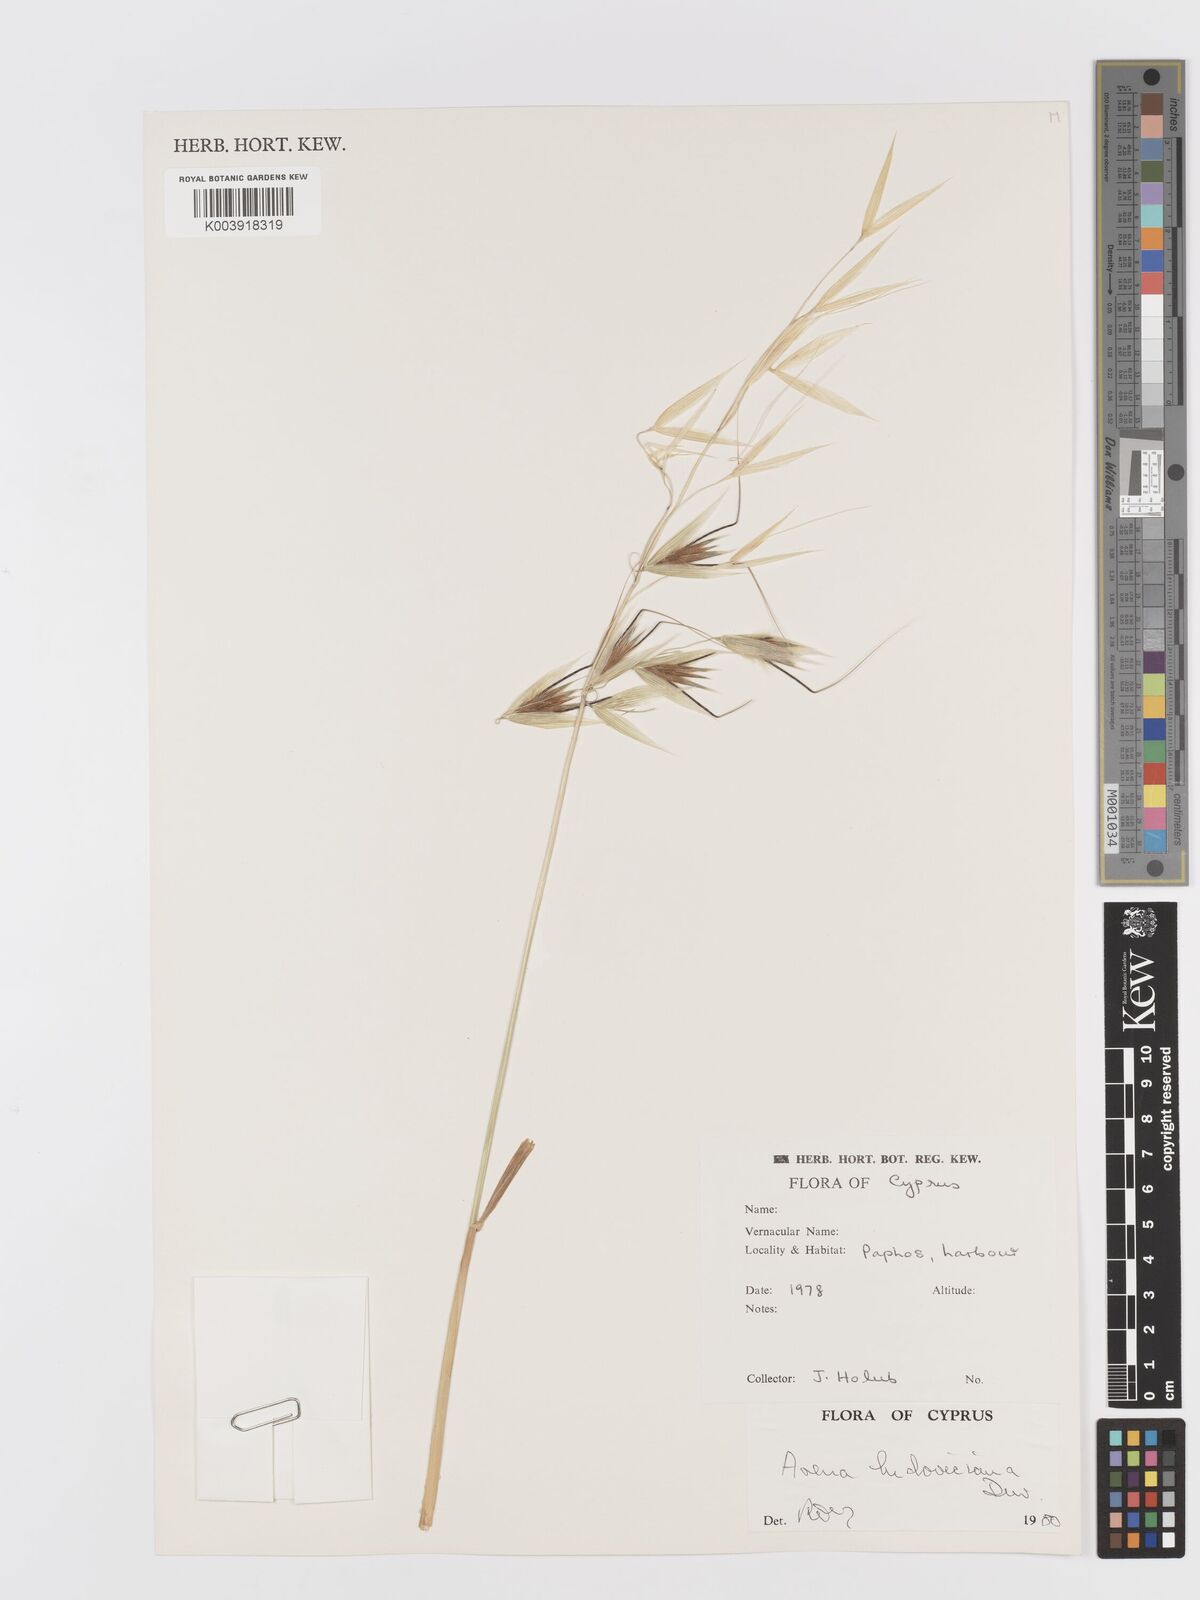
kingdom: Plantae
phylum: Tracheophyta
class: Liliopsida
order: Poales
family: Poaceae
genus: Avena
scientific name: Avena sterilis
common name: Animated oat
